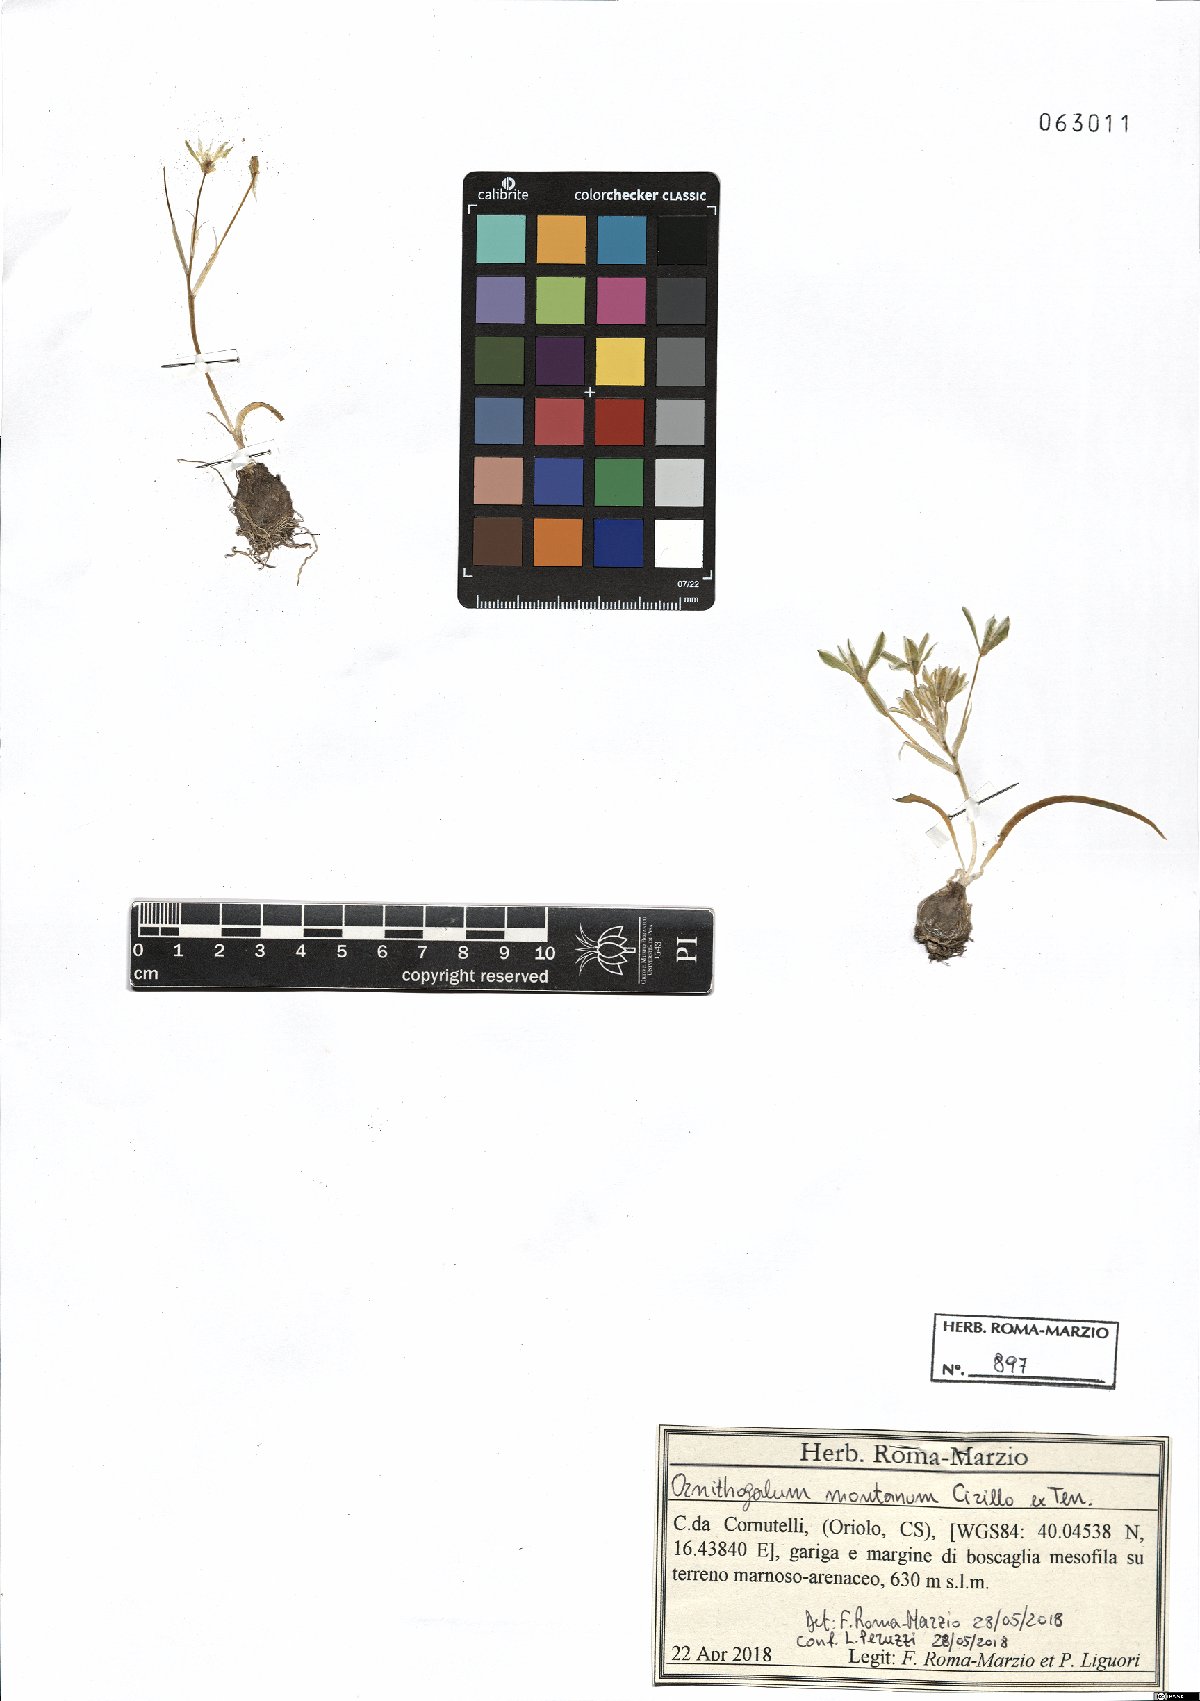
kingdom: Plantae
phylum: Tracheophyta
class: Liliopsida
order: Asparagales
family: Asparagaceae
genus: Ornithogalum
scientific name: Ornithogalum montanum
